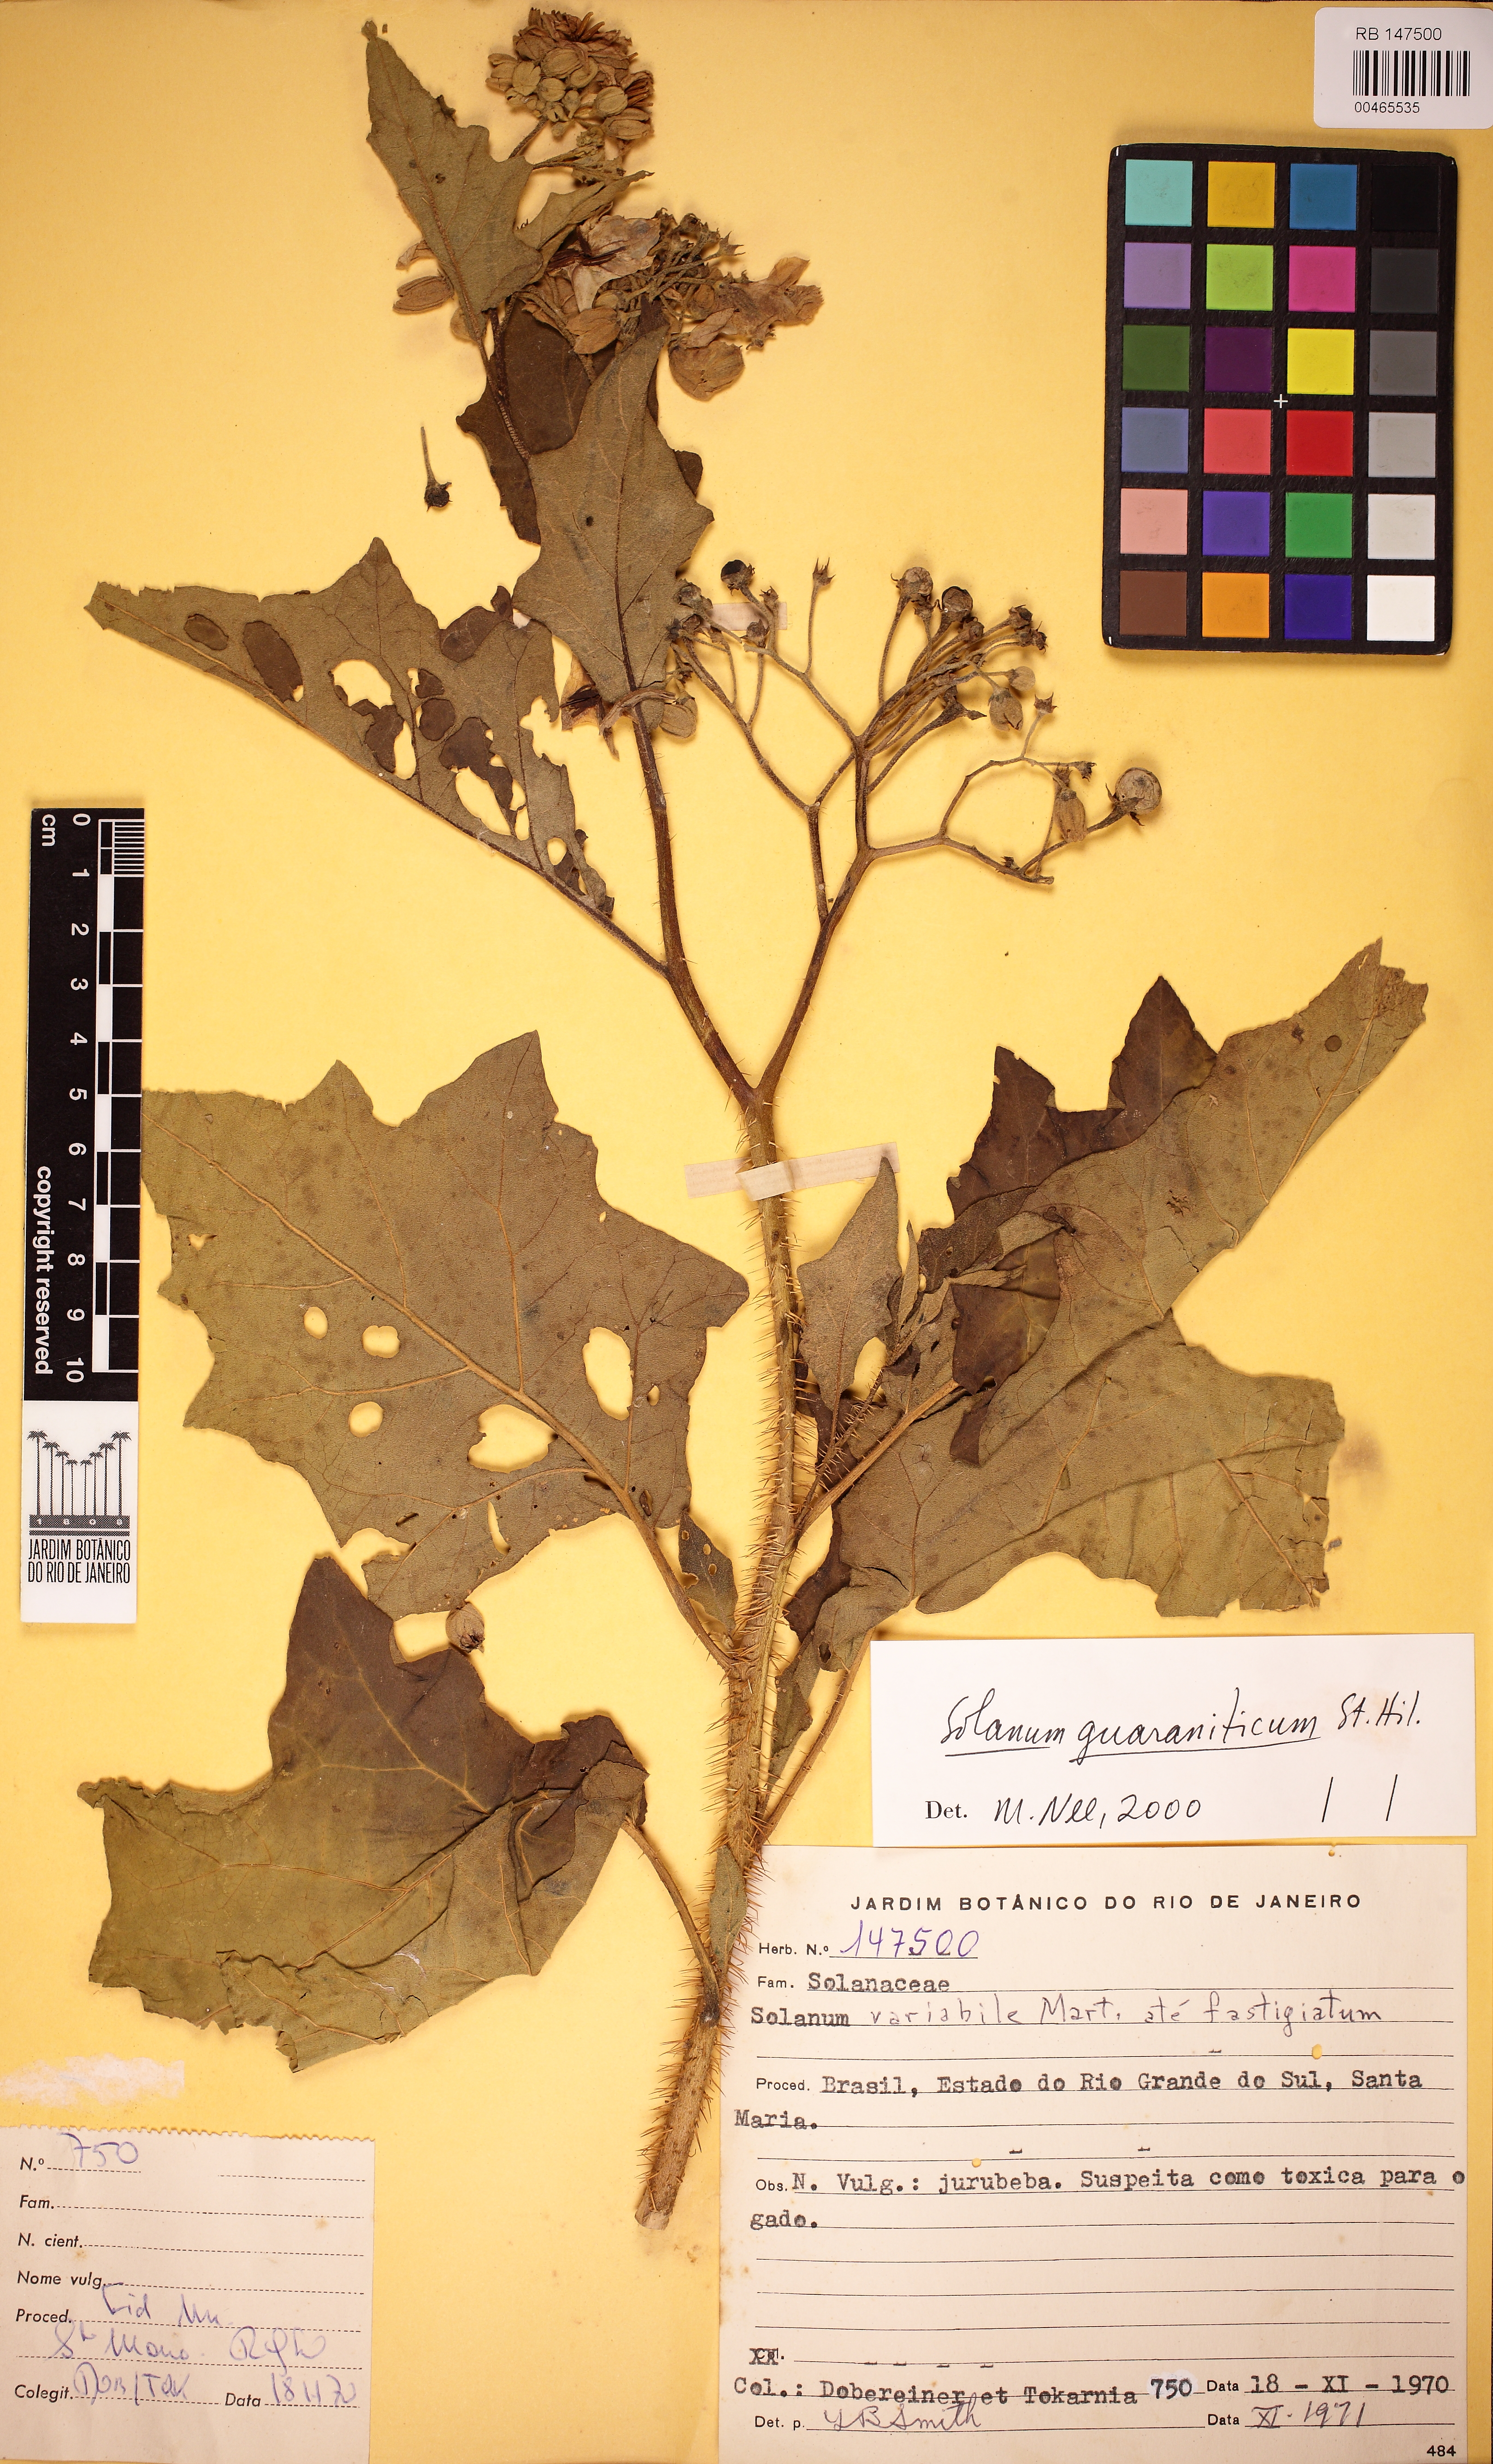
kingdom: Plantae
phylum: Tracheophyta
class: Magnoliopsida
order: Solanales
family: Solanaceae
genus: Solanum
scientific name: Solanum guaraniticum
